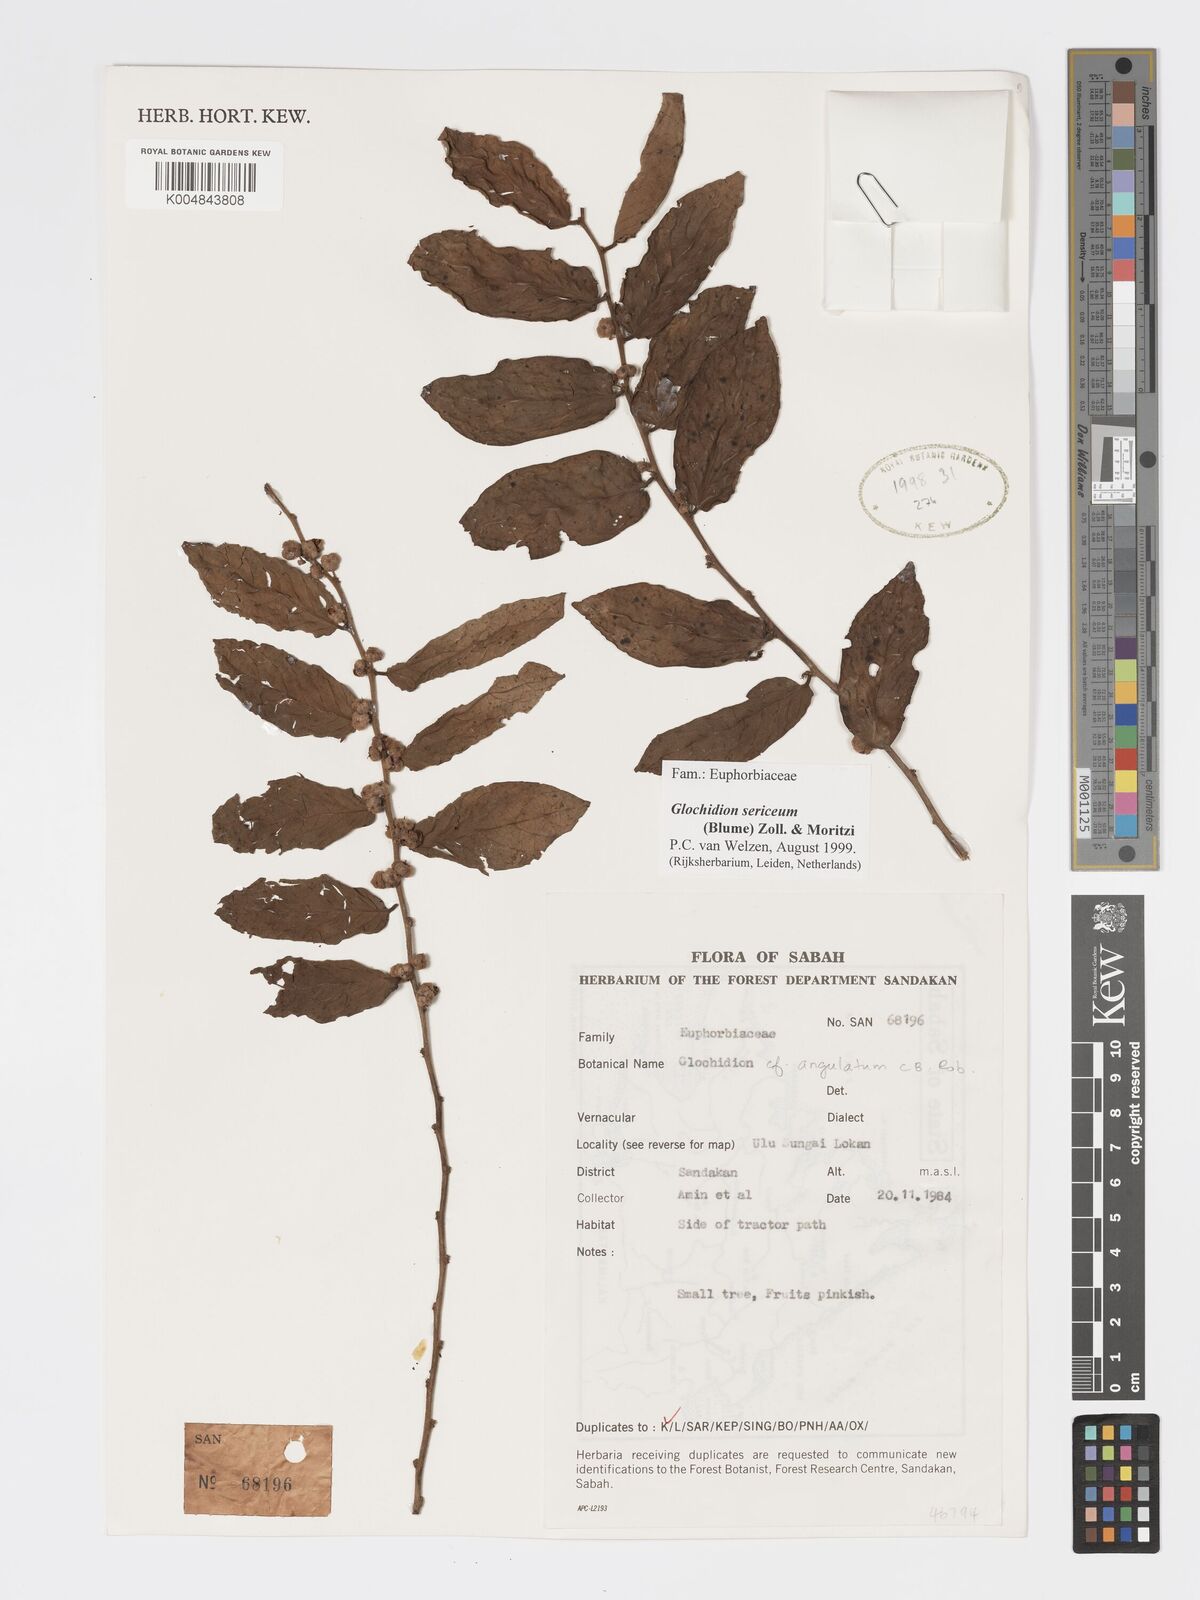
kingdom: Plantae
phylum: Tracheophyta
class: Magnoliopsida
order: Malpighiales
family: Phyllanthaceae
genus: Glochidion
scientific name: Glochidion sericeum
